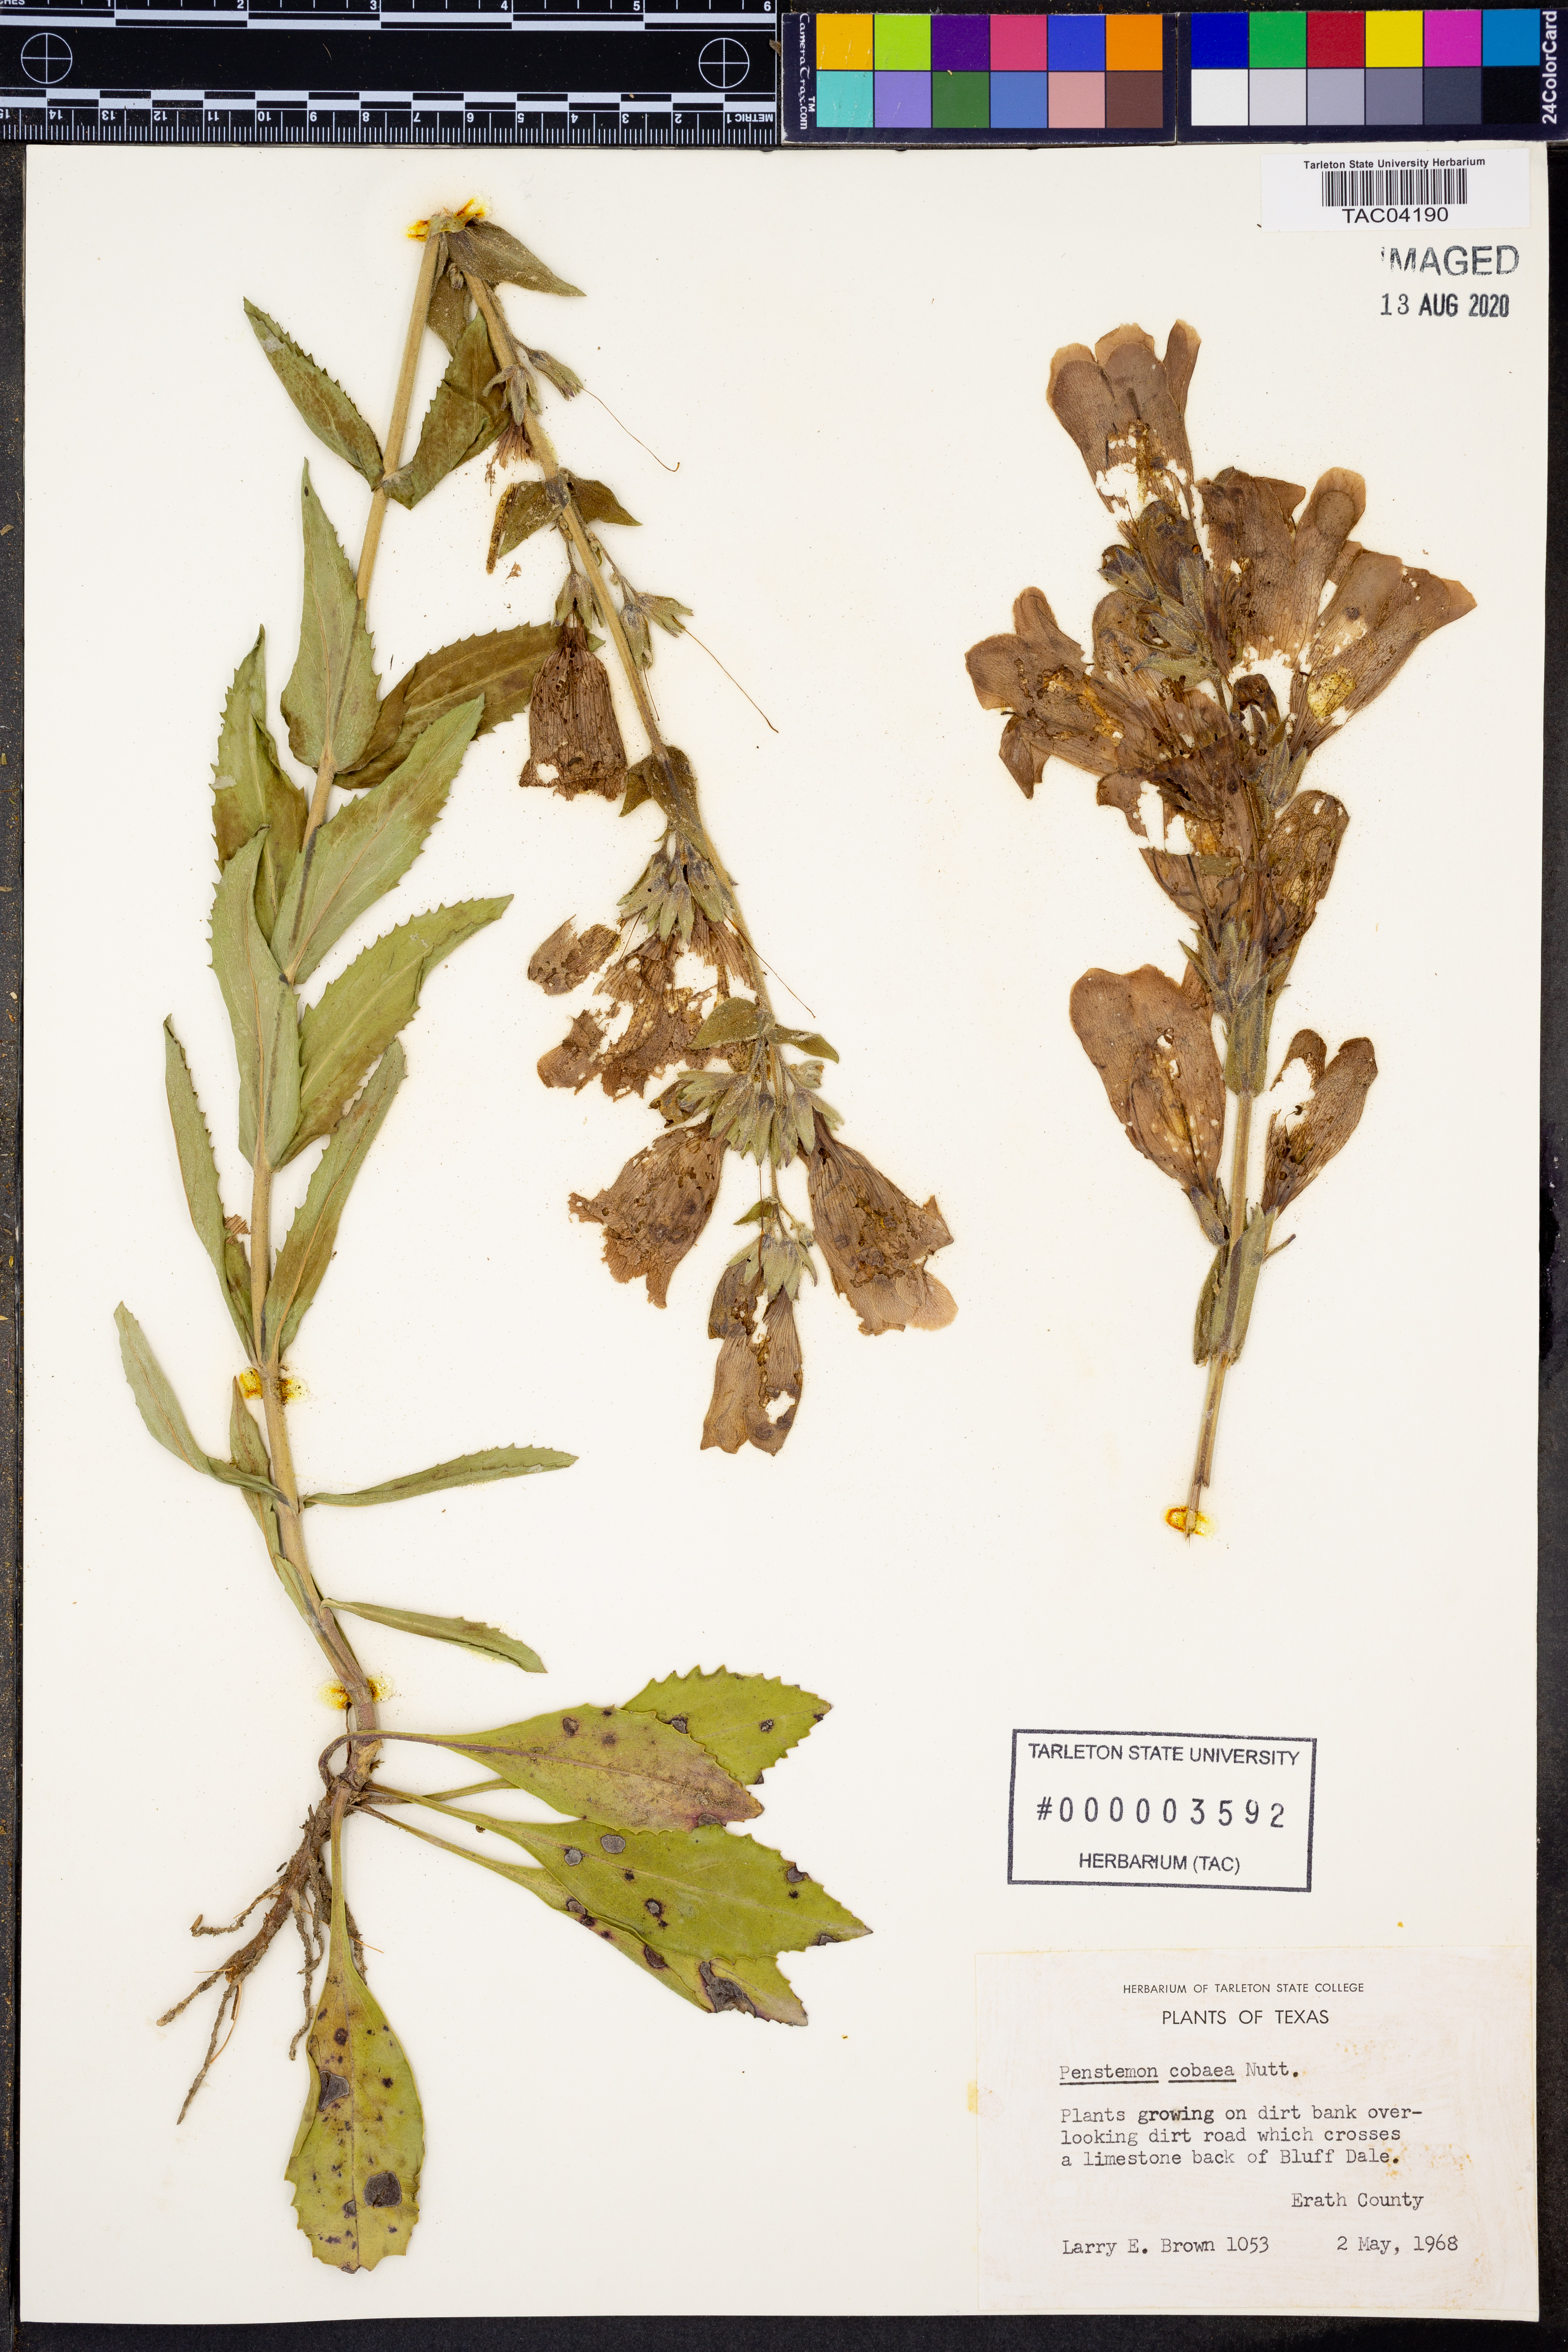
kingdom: Plantae
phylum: Tracheophyta
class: Magnoliopsida
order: Lamiales
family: Plantaginaceae
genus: Penstemon
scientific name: Penstemon cobaea
